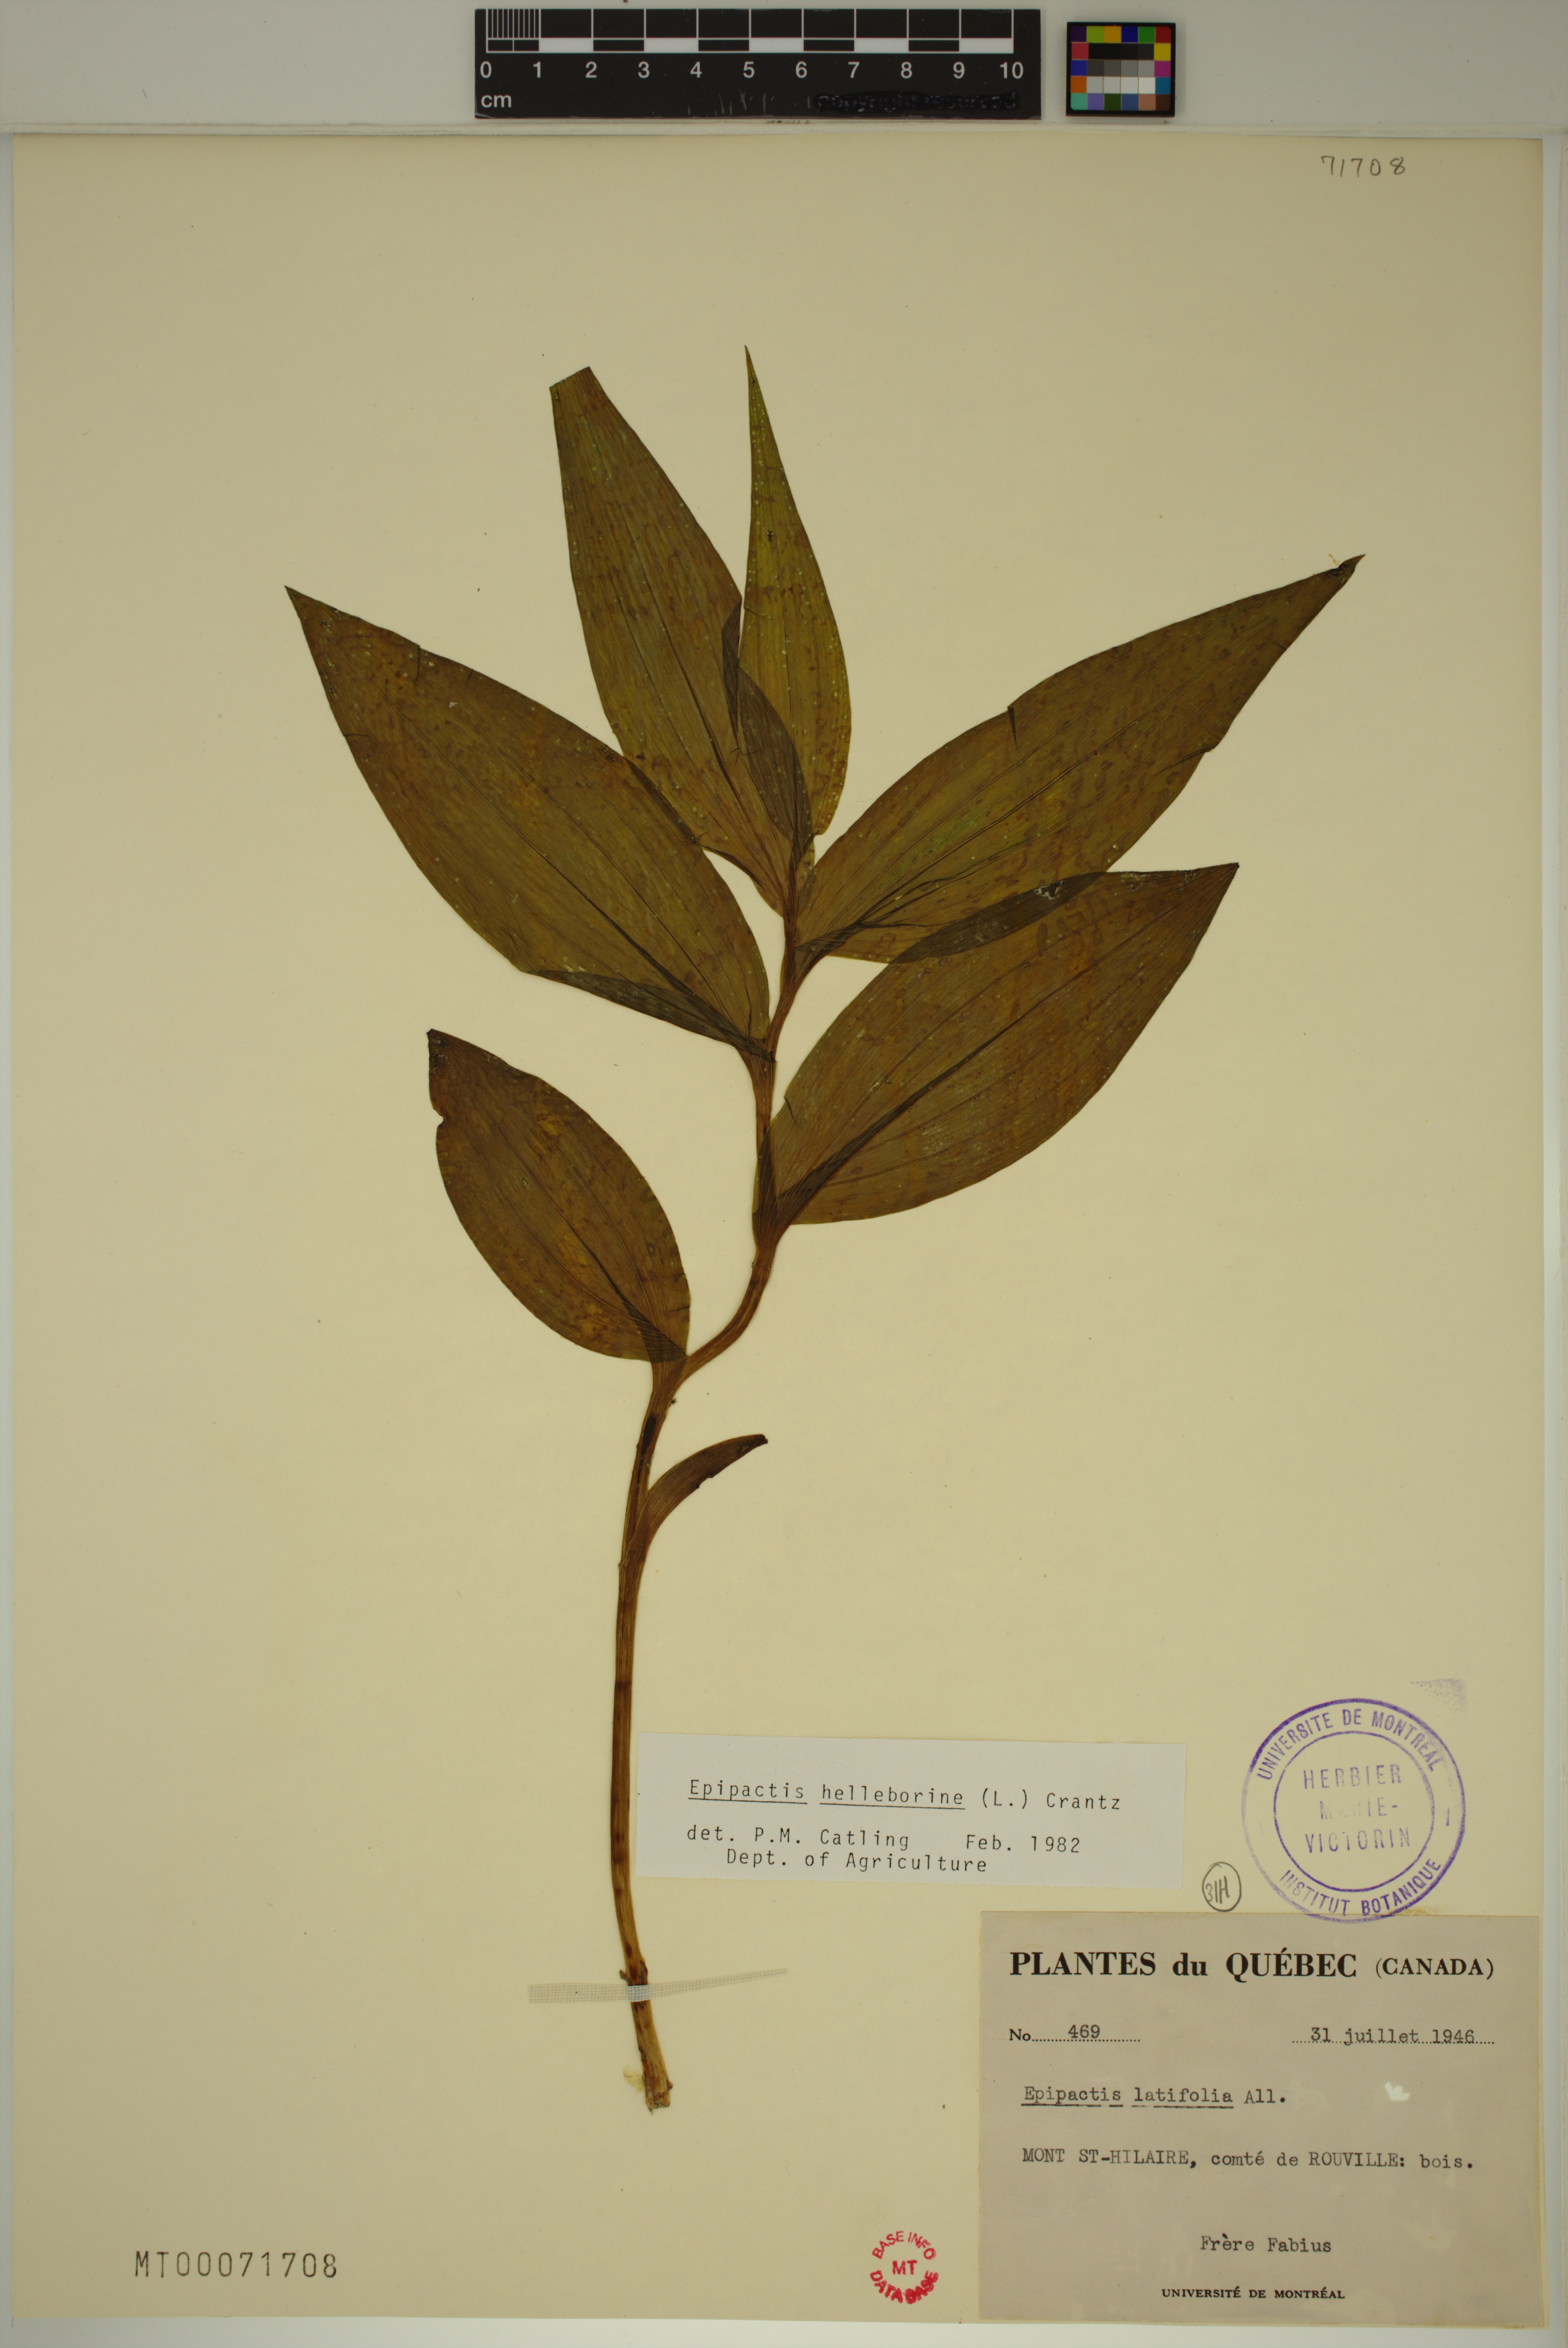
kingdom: Plantae
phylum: Tracheophyta
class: Liliopsida
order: Asparagales
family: Orchidaceae
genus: Epipactis
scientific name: Epipactis helleborine
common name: Broad-leaved helleborine
